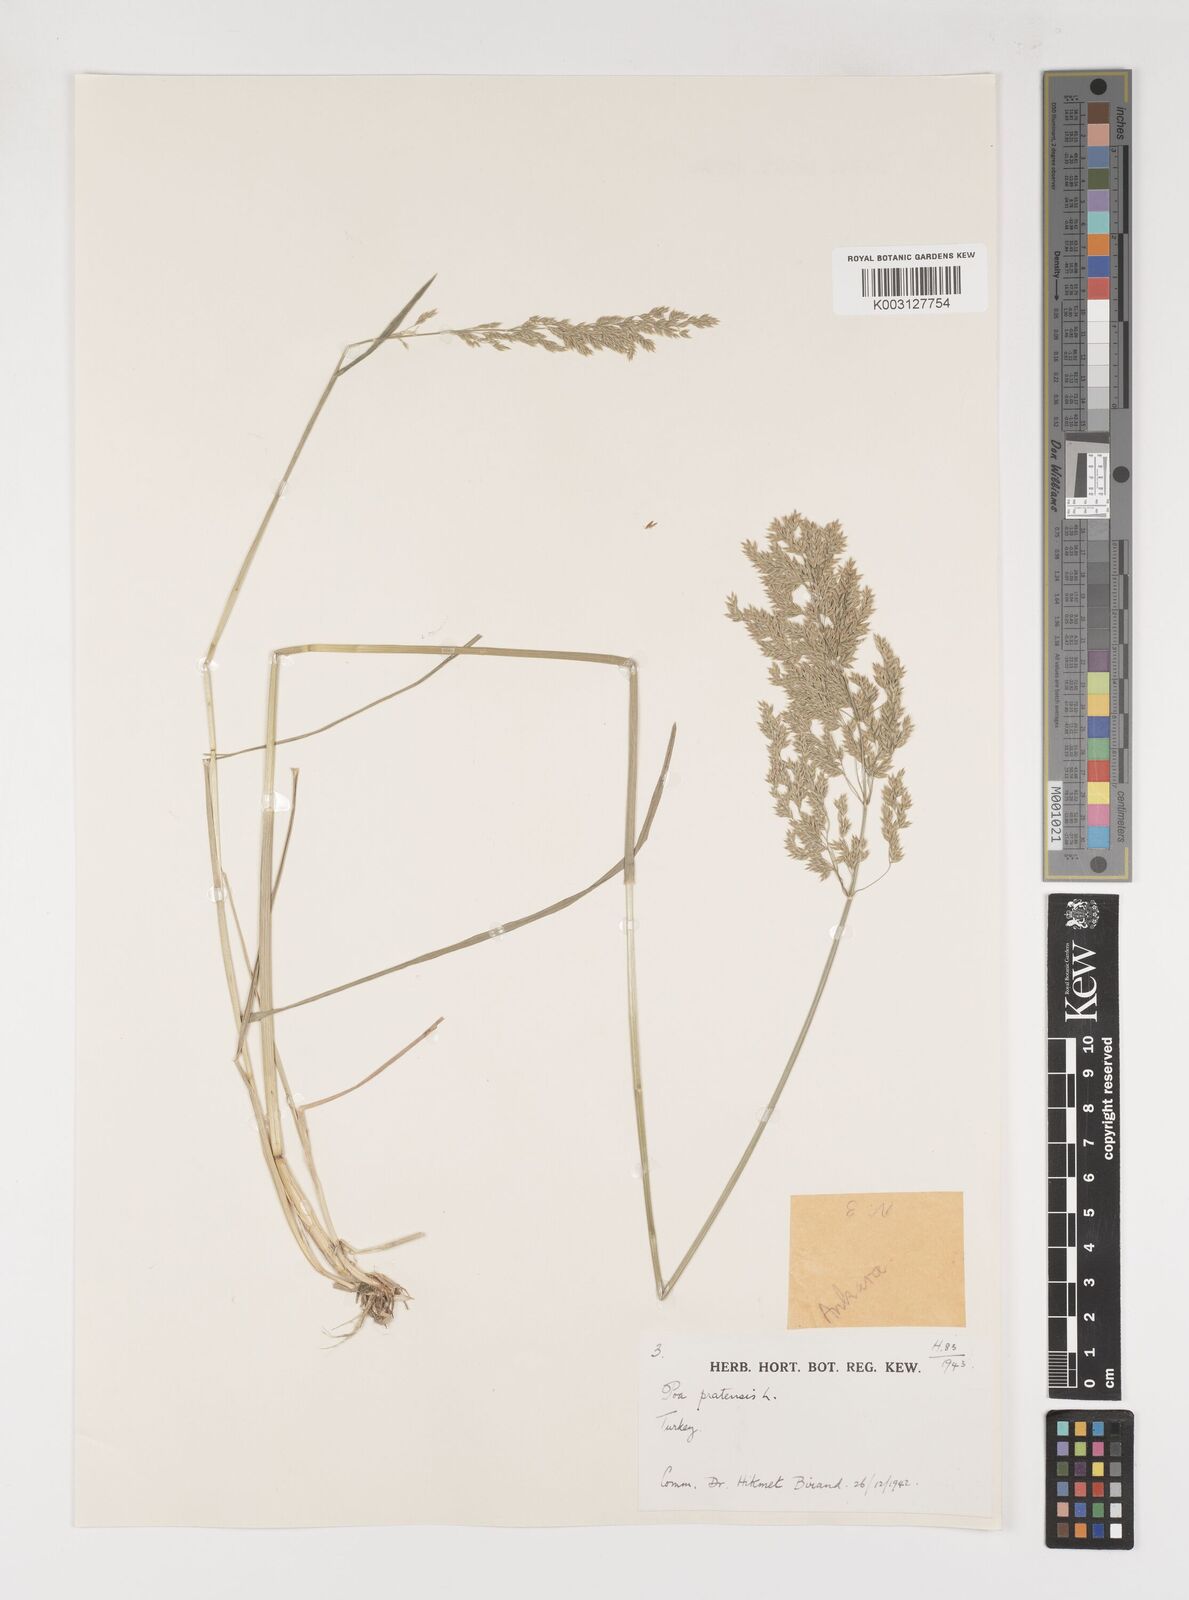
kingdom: Plantae
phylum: Tracheophyta
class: Liliopsida
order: Poales
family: Poaceae
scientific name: Poaceae
